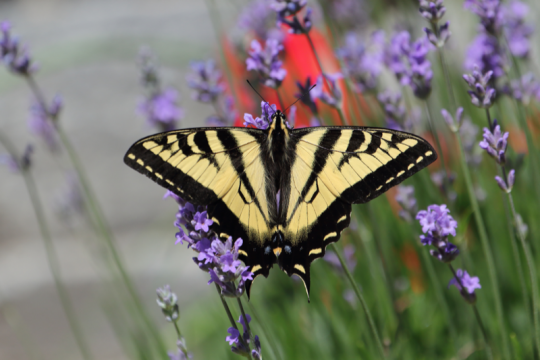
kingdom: Animalia
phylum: Arthropoda
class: Insecta
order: Lepidoptera
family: Papilionidae
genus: Pterourus
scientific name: Pterourus rutulus
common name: Western Tiger Swallowtail
